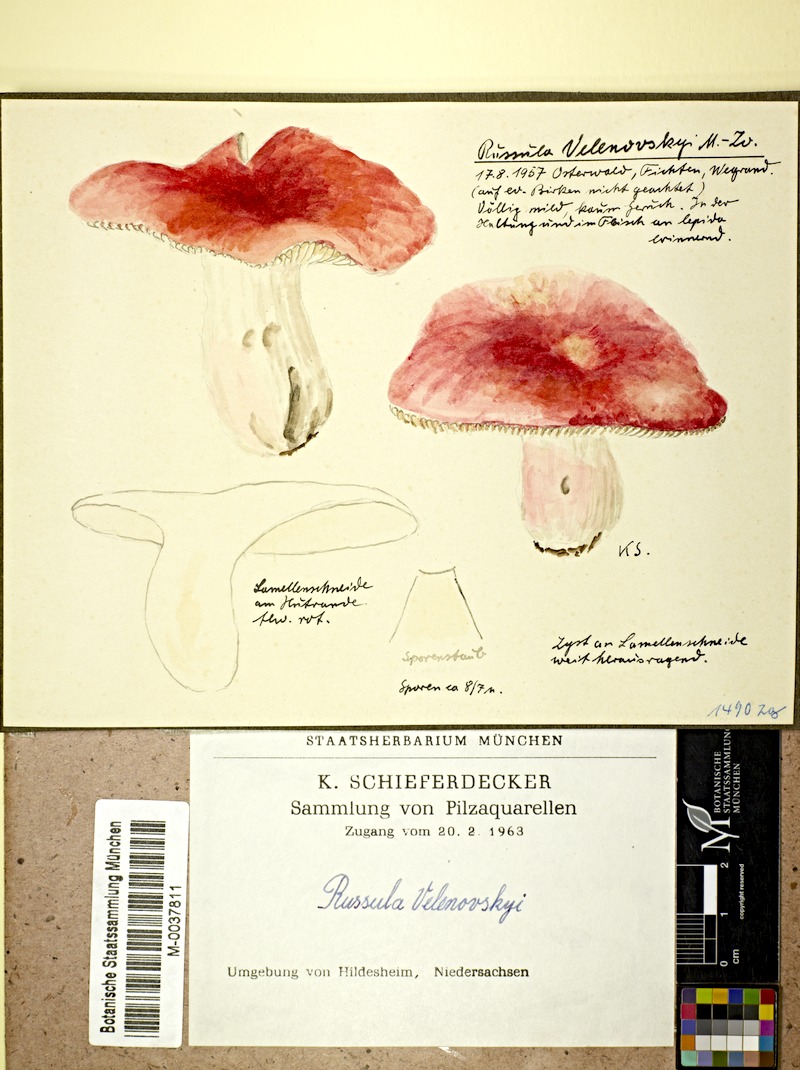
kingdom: Fungi
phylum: Basidiomycota
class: Agaricomycetes
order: Russulales
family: Russulaceae
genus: Russula
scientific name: Russula velenovskyi
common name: Coral brittlegill
